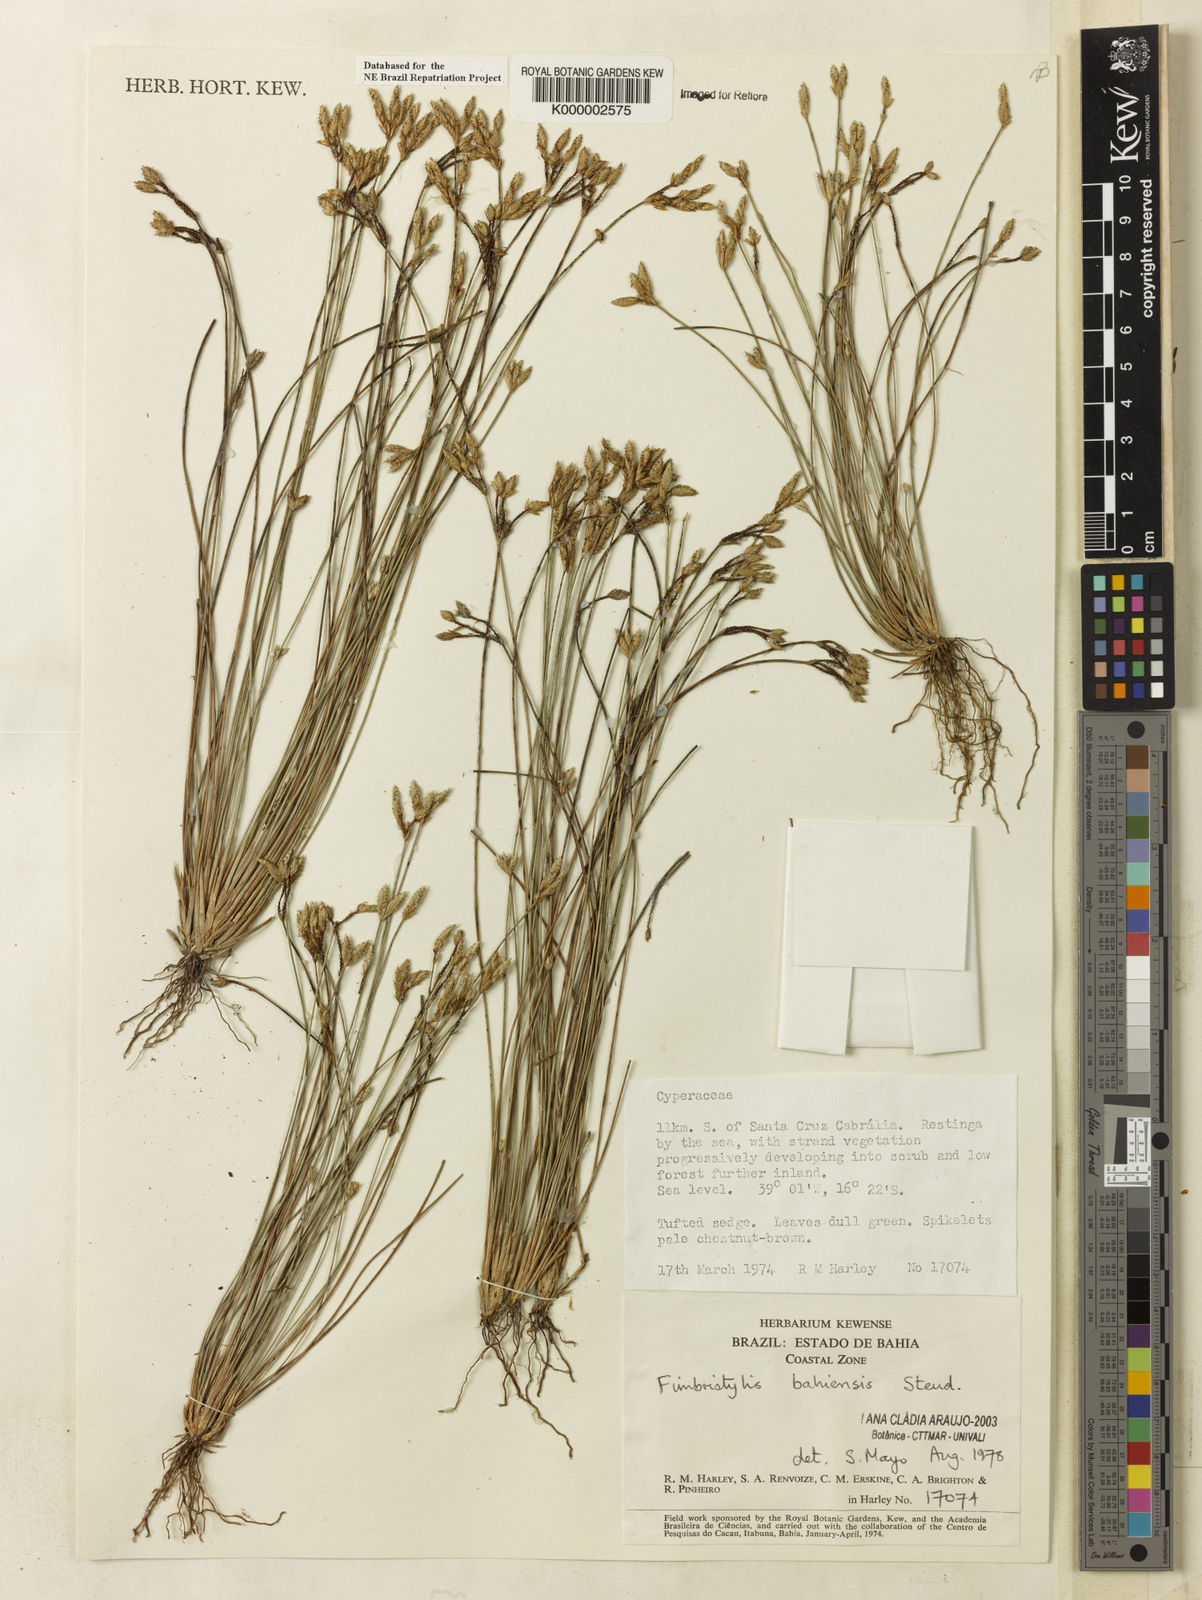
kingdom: Plantae
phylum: Tracheophyta
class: Liliopsida
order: Poales
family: Cyperaceae
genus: Fimbristylis
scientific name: Fimbristylis bahiensis
